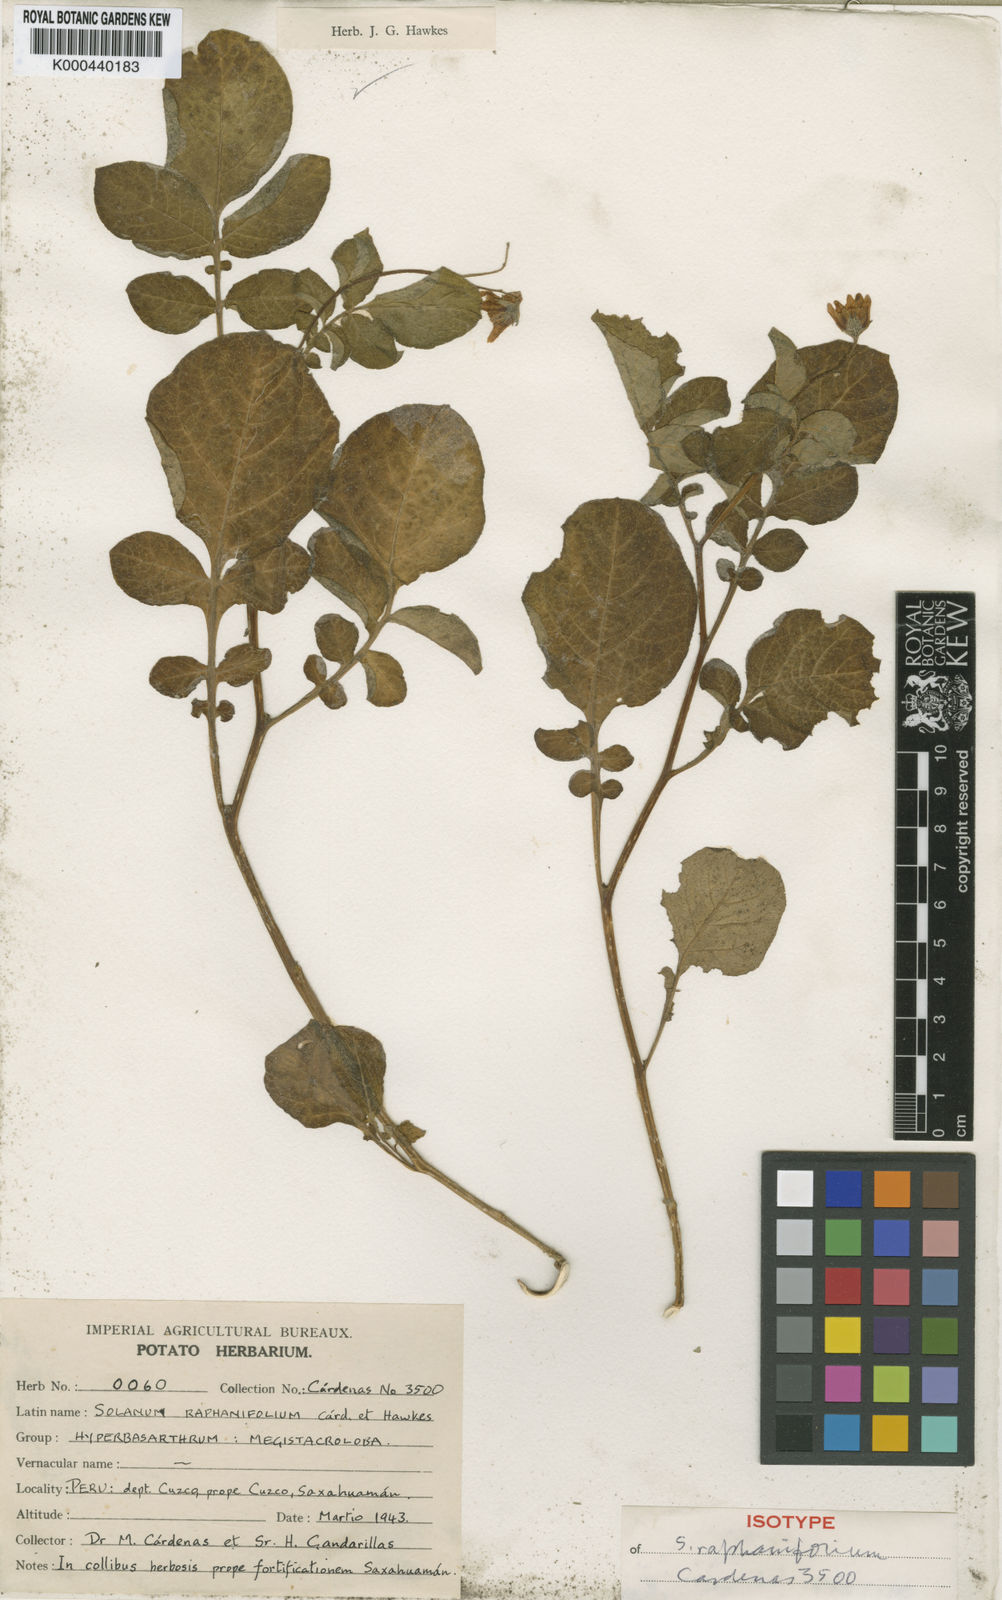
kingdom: Plantae
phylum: Tracheophyta
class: Magnoliopsida
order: Solanales
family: Solanaceae
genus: Solanum
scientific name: Solanum raphanifolium
